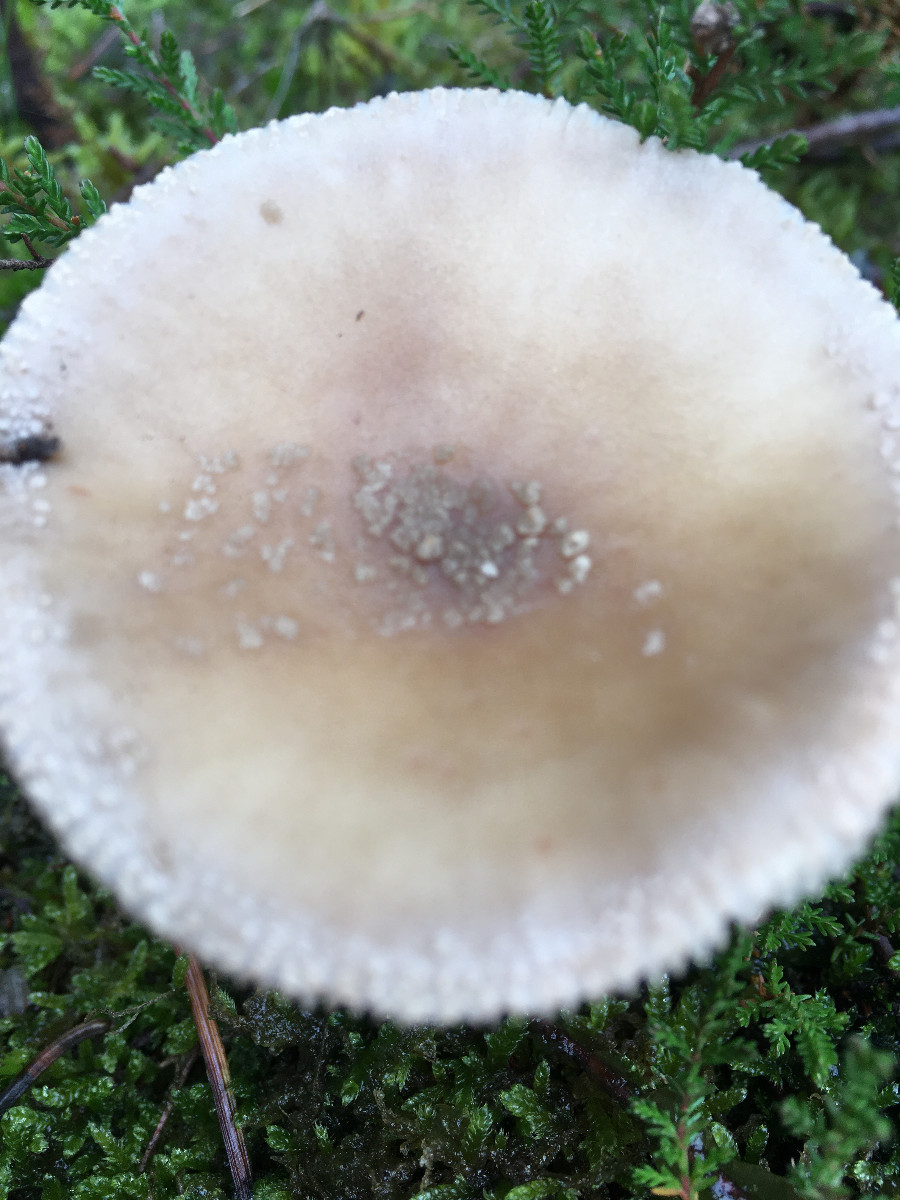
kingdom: Fungi
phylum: Basidiomycota
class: Agaricomycetes
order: Agaricales
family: Amanitaceae
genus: Amanita
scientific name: Amanita rubescens
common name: rødmende fluesvamp
